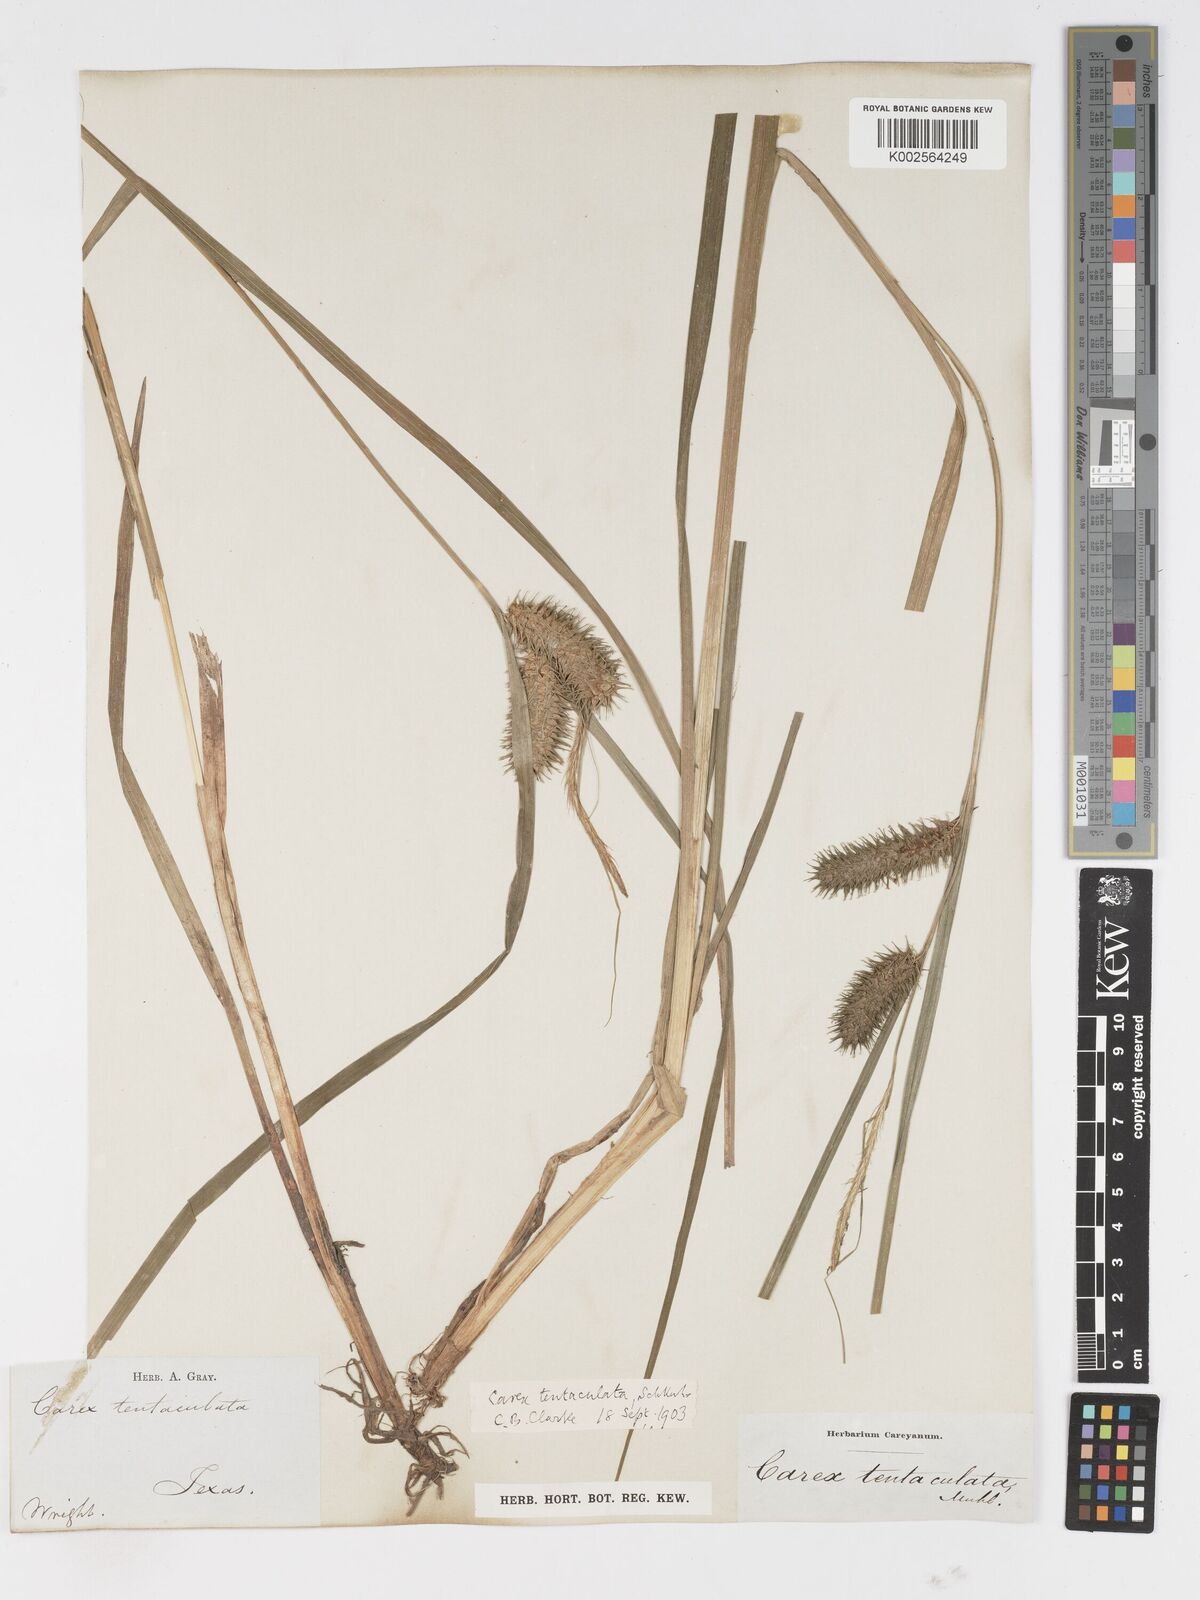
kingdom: Plantae
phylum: Tracheophyta
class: Liliopsida
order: Poales
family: Cyperaceae
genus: Carex
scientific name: Carex lurida
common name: Sallow sedge
